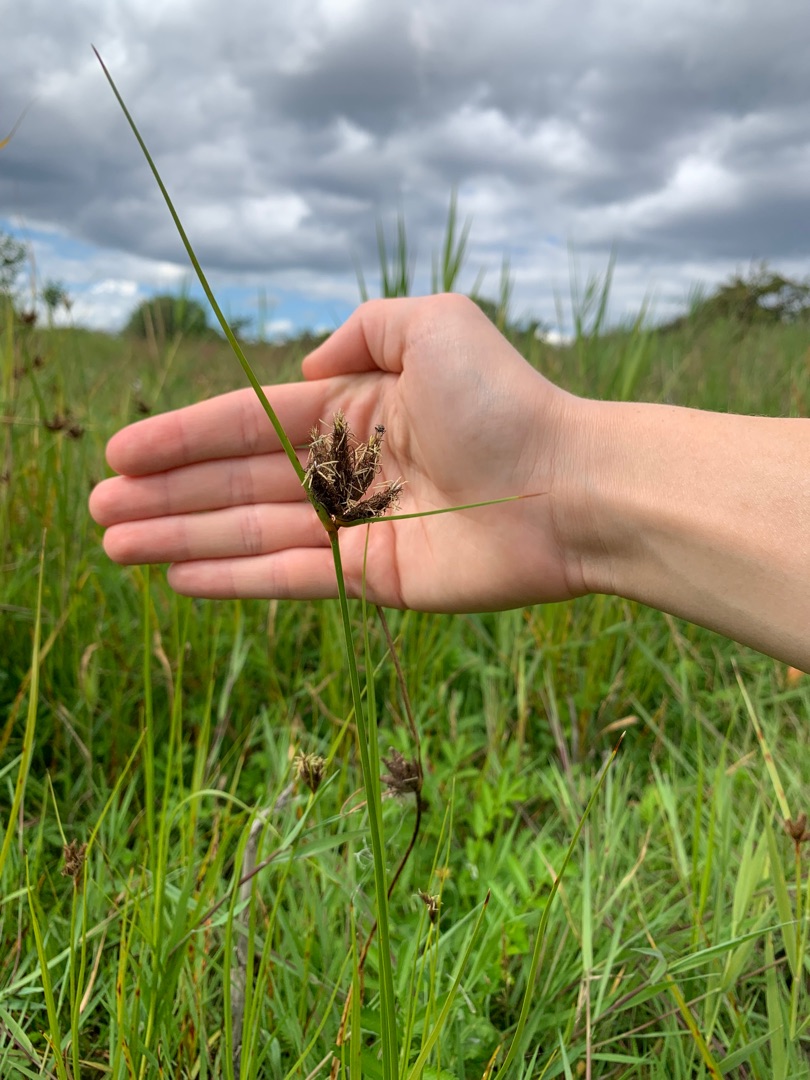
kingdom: Plantae
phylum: Tracheophyta
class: Liliopsida
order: Poales
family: Cyperaceae
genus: Bolboschoenus
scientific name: Bolboschoenus maritimus
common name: Strand-kogleaks
